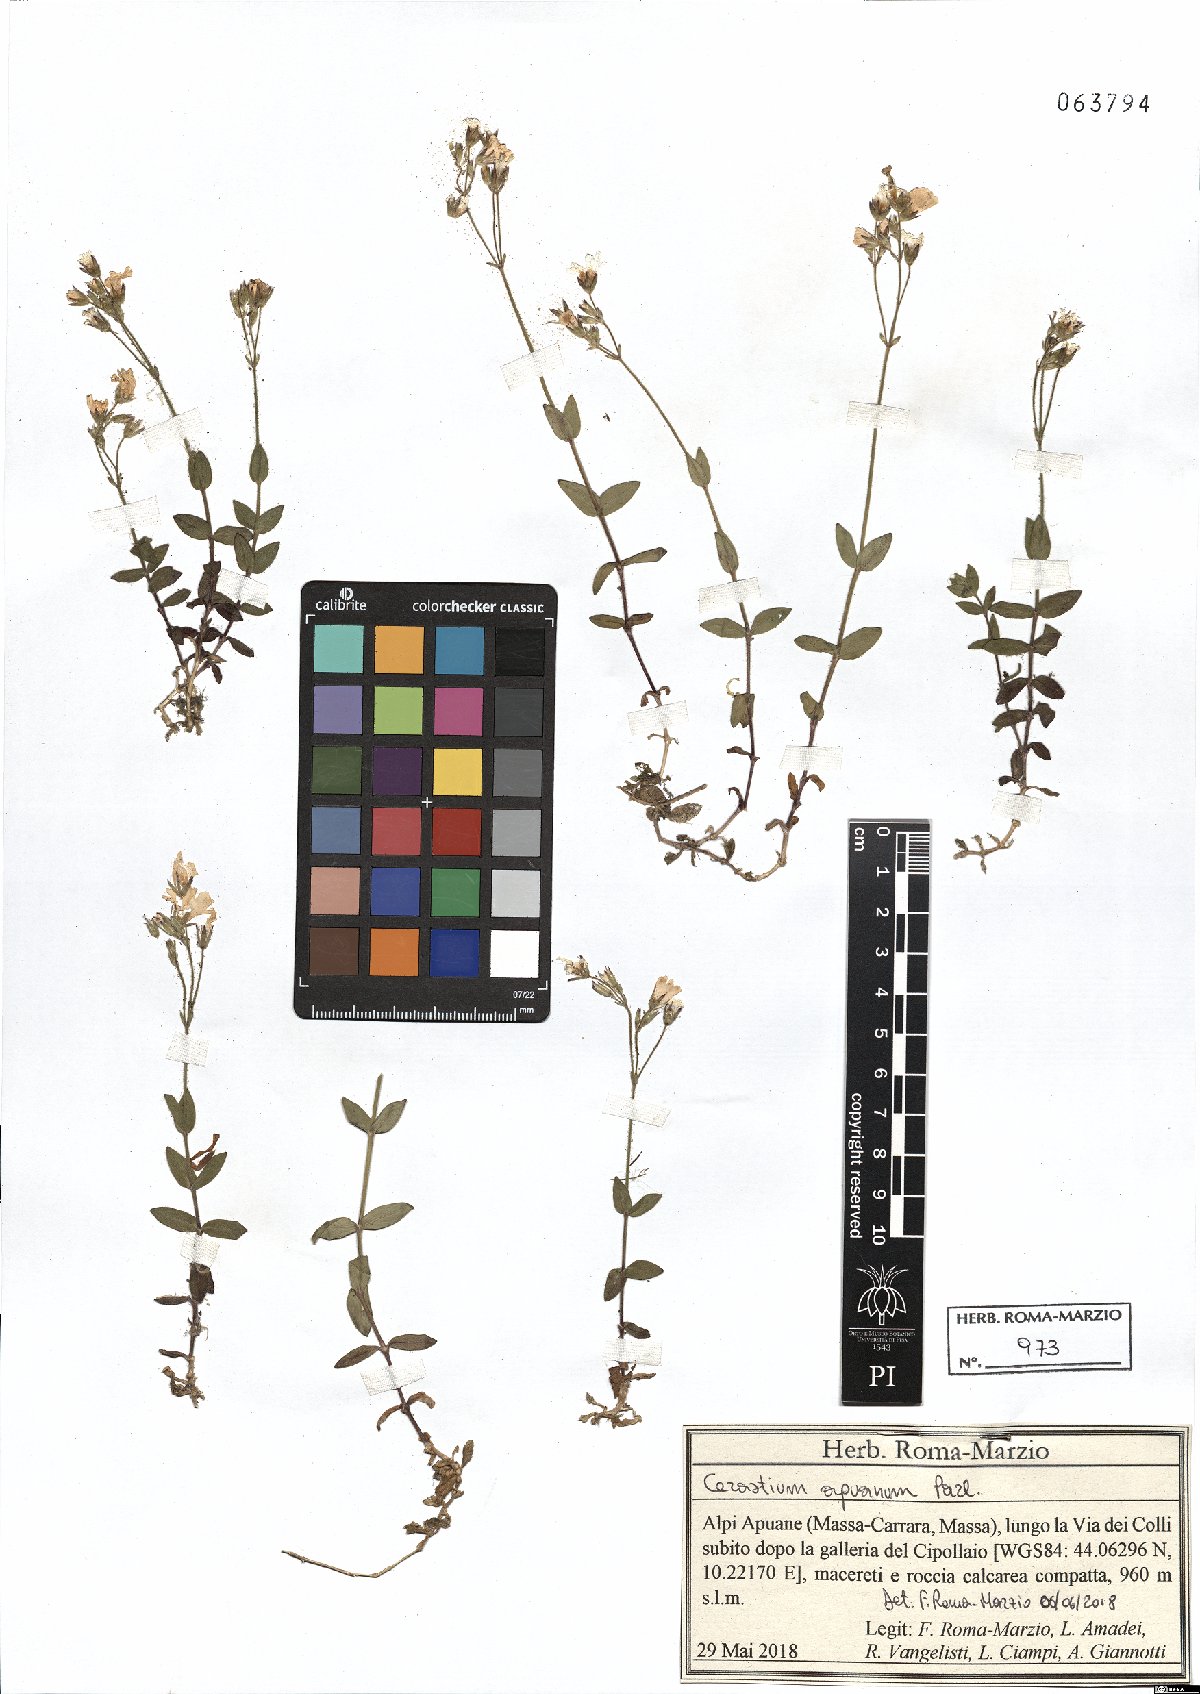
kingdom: Plantae
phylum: Tracheophyta
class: Magnoliopsida
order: Caryophyllales
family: Caryophyllaceae
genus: Cerastium
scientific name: Cerastium scaranii
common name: Italian mouse-ear
